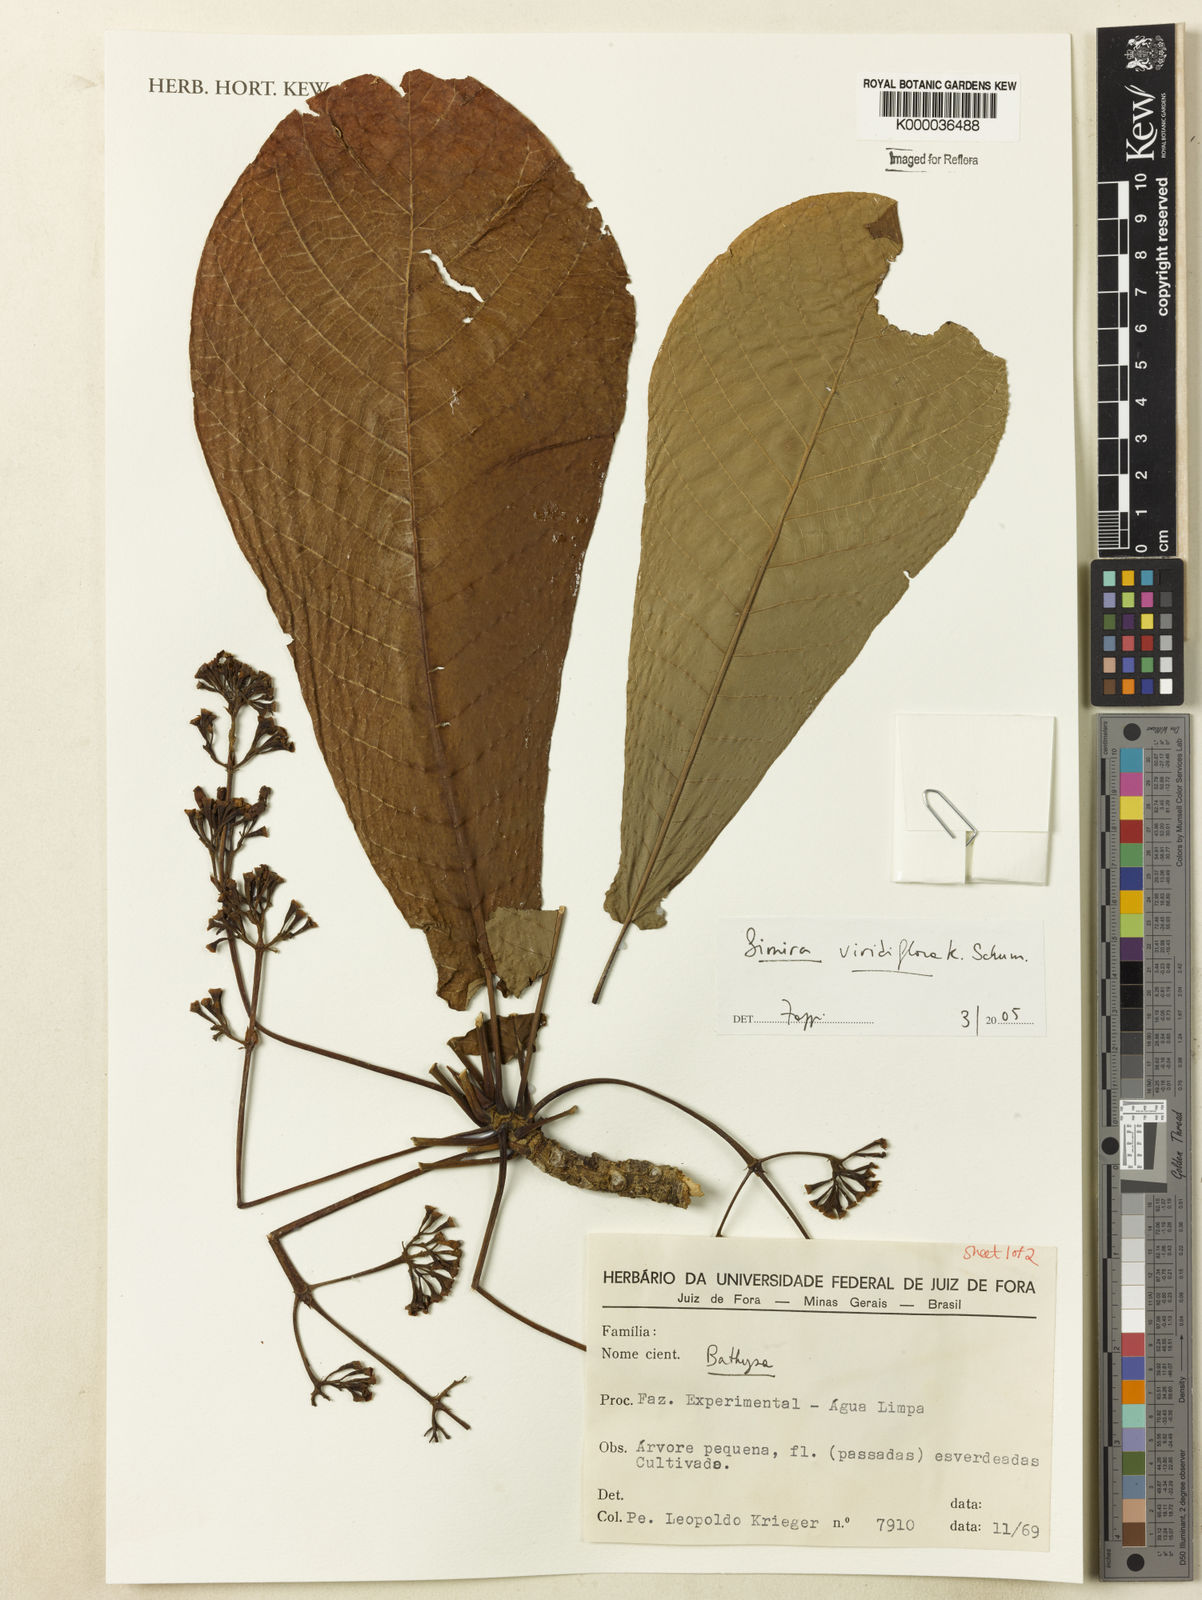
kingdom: Plantae
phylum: Tracheophyta
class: Magnoliopsida
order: Gentianales
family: Rubiaceae
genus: Simira
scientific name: Simira
